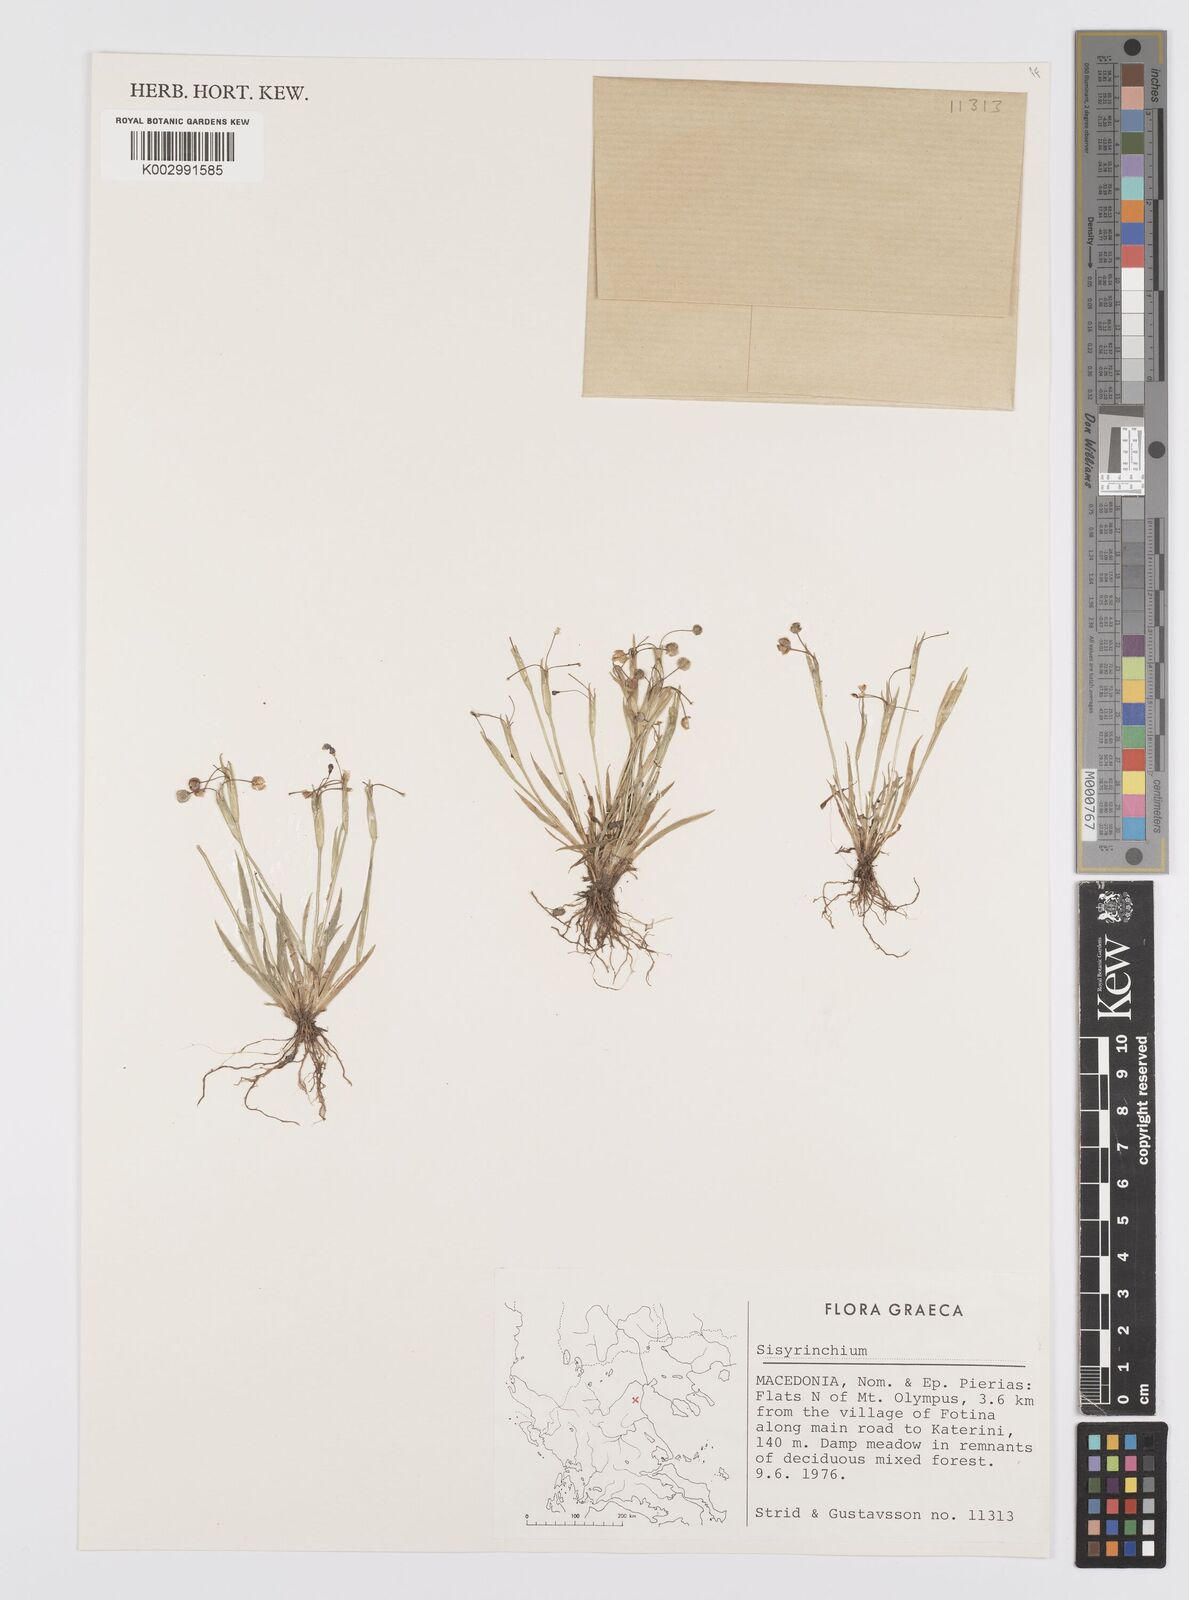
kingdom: Plantae
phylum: Tracheophyta
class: Liliopsida
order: Asparagales
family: Iridaceae
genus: Sisyrinchium
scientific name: Sisyrinchium
